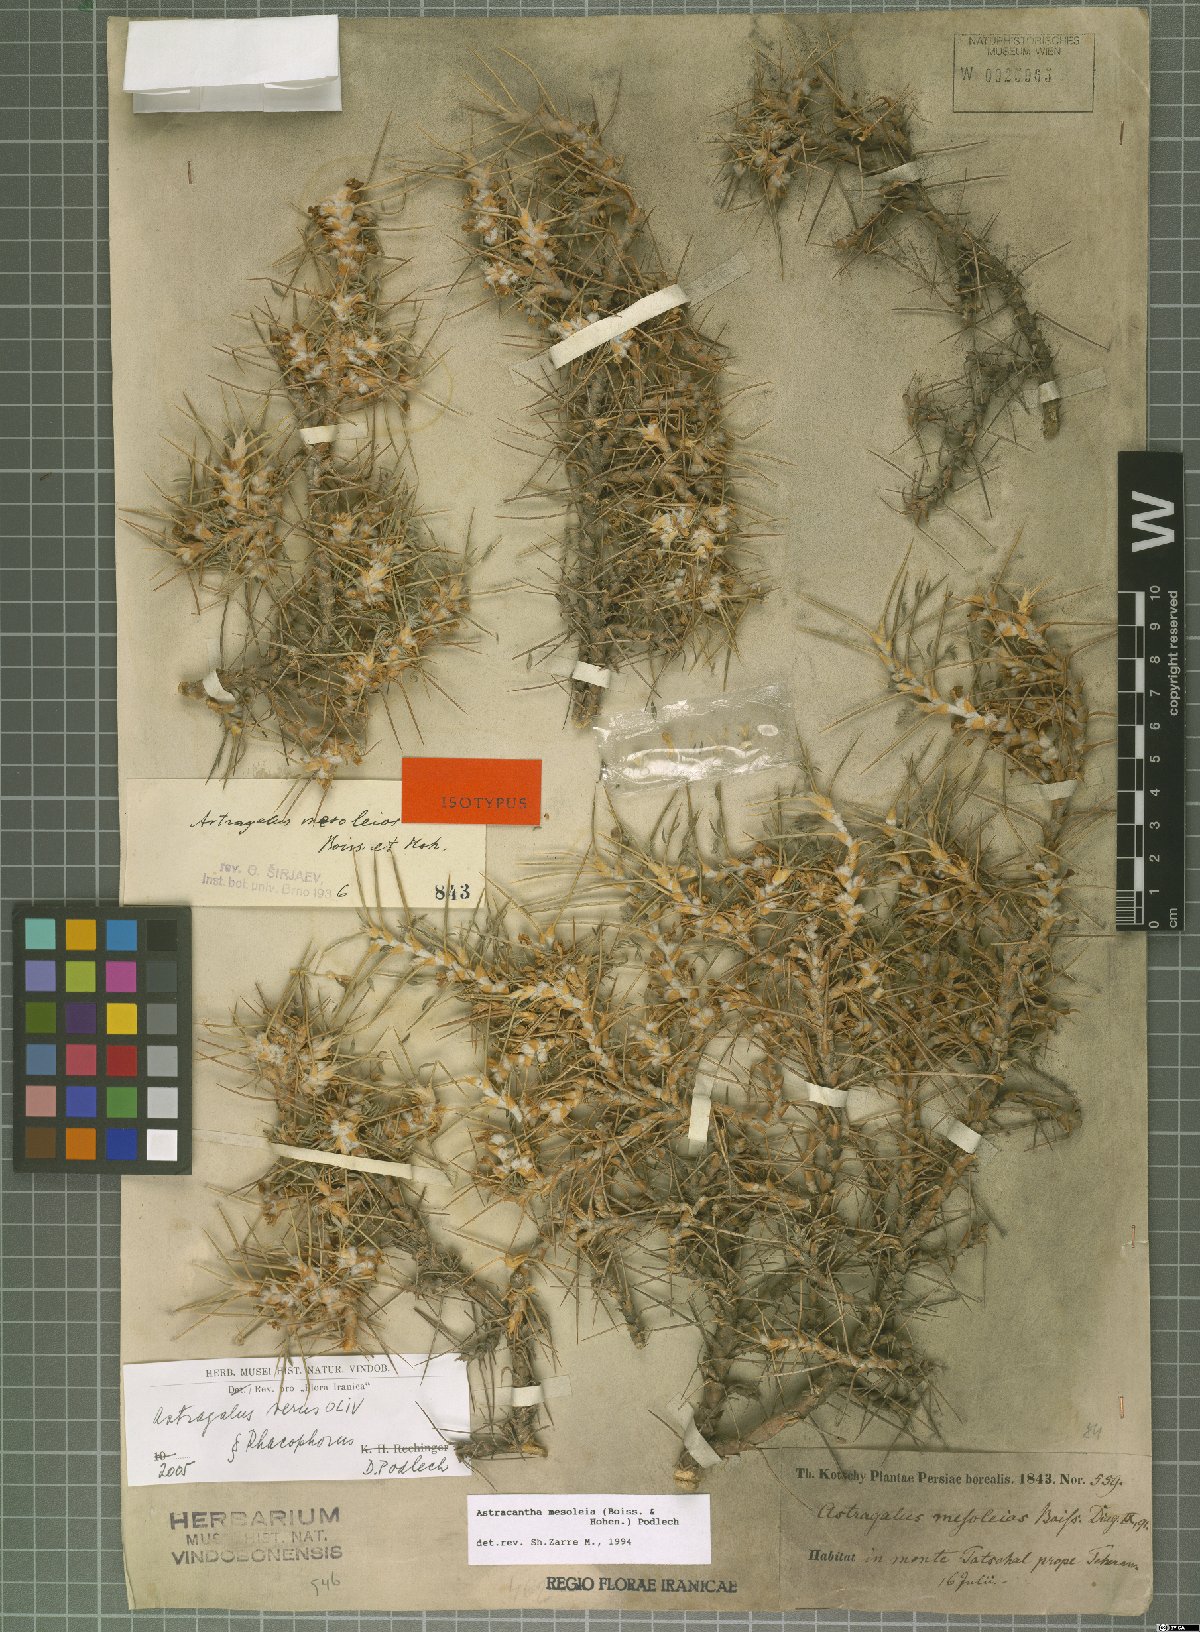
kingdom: Plantae
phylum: Tracheophyta
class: Magnoliopsida
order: Fabales
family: Fabaceae
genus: Astragalus
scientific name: Astragalus verus
